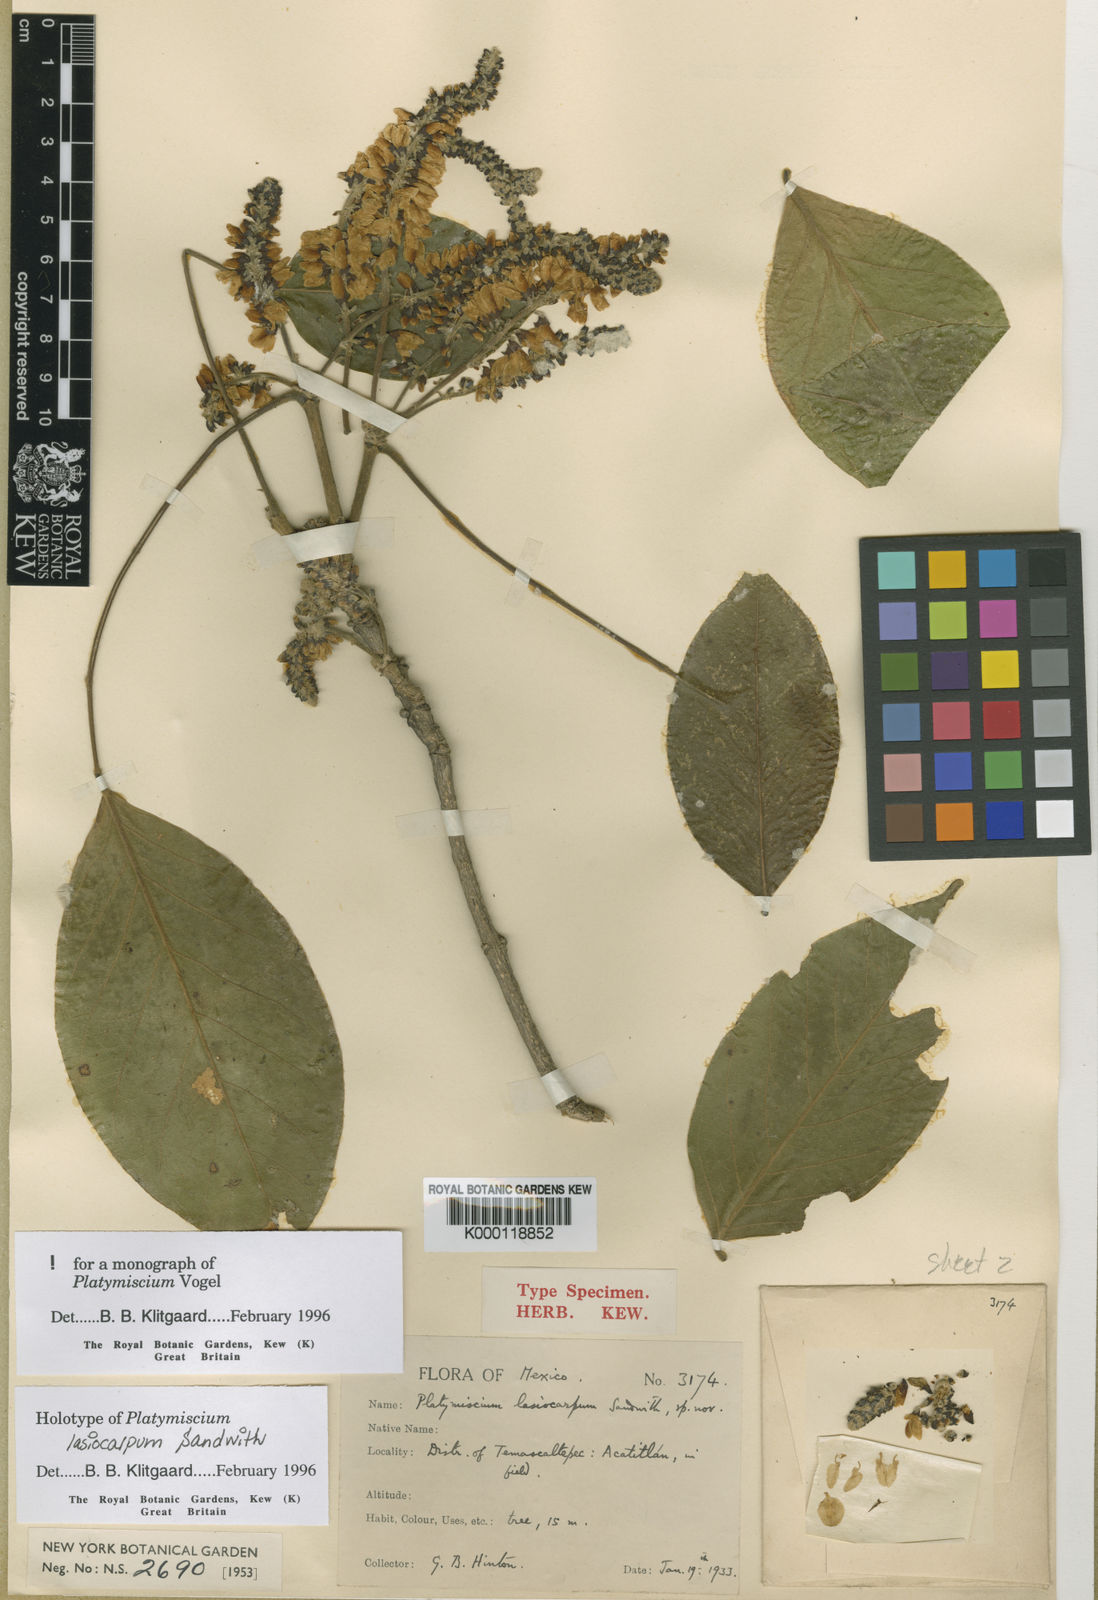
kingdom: Plantae
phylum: Tracheophyta
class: Magnoliopsida
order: Fabales
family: Fabaceae
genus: Platymiscium
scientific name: Platymiscium lasiocarpum
